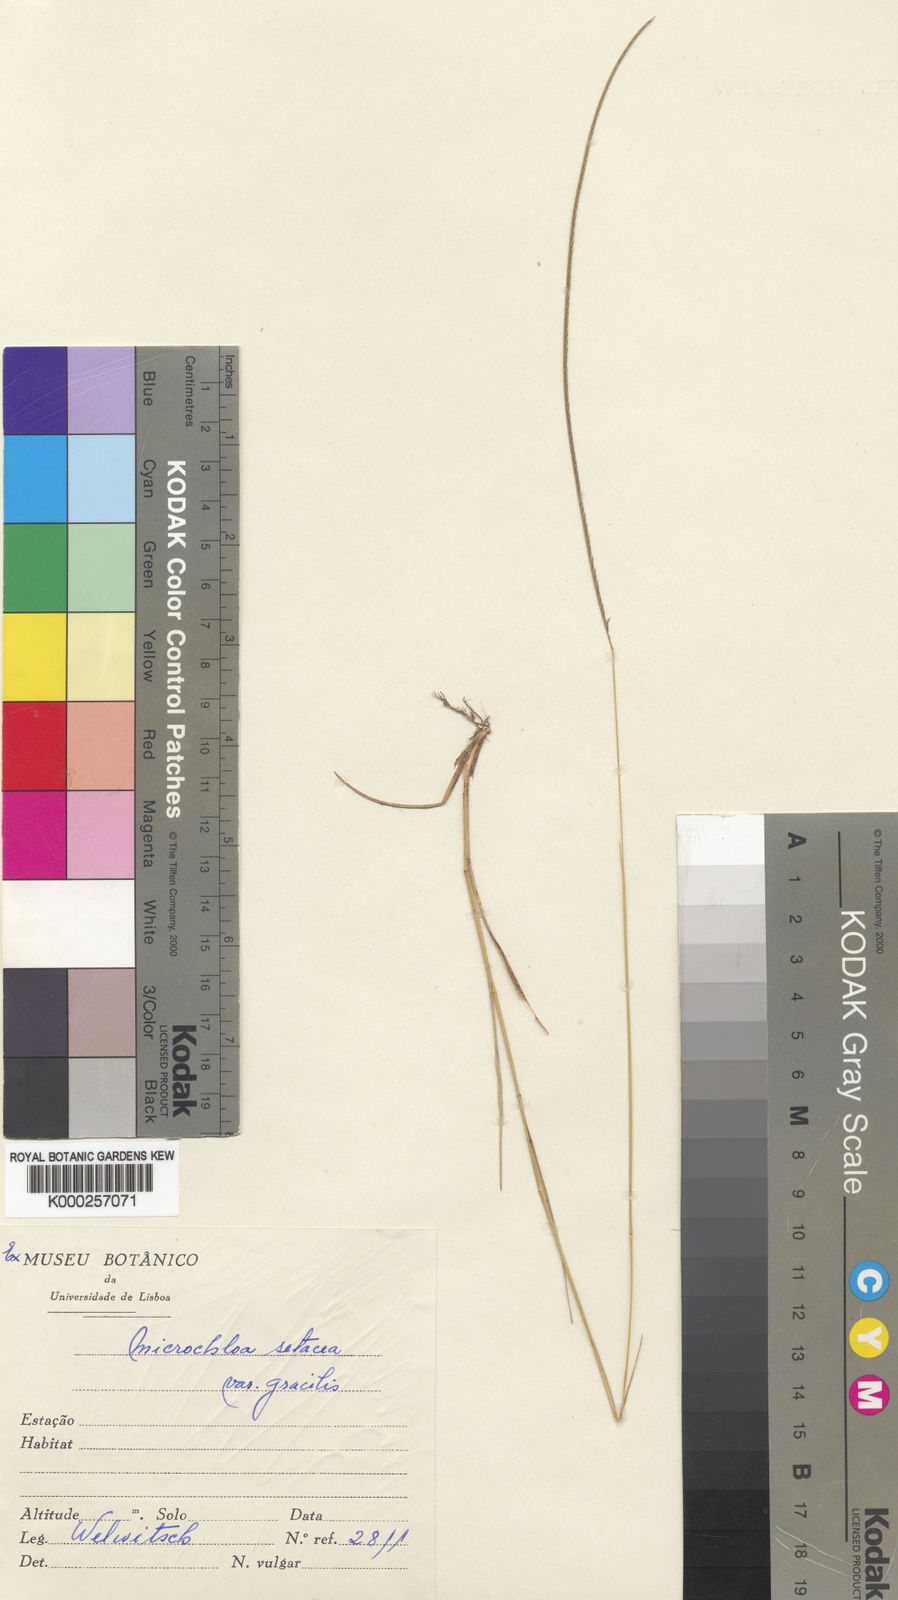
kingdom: Plantae
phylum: Tracheophyta
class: Liliopsida
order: Poales
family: Poaceae
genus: Microchloa
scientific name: Microchloa indica
